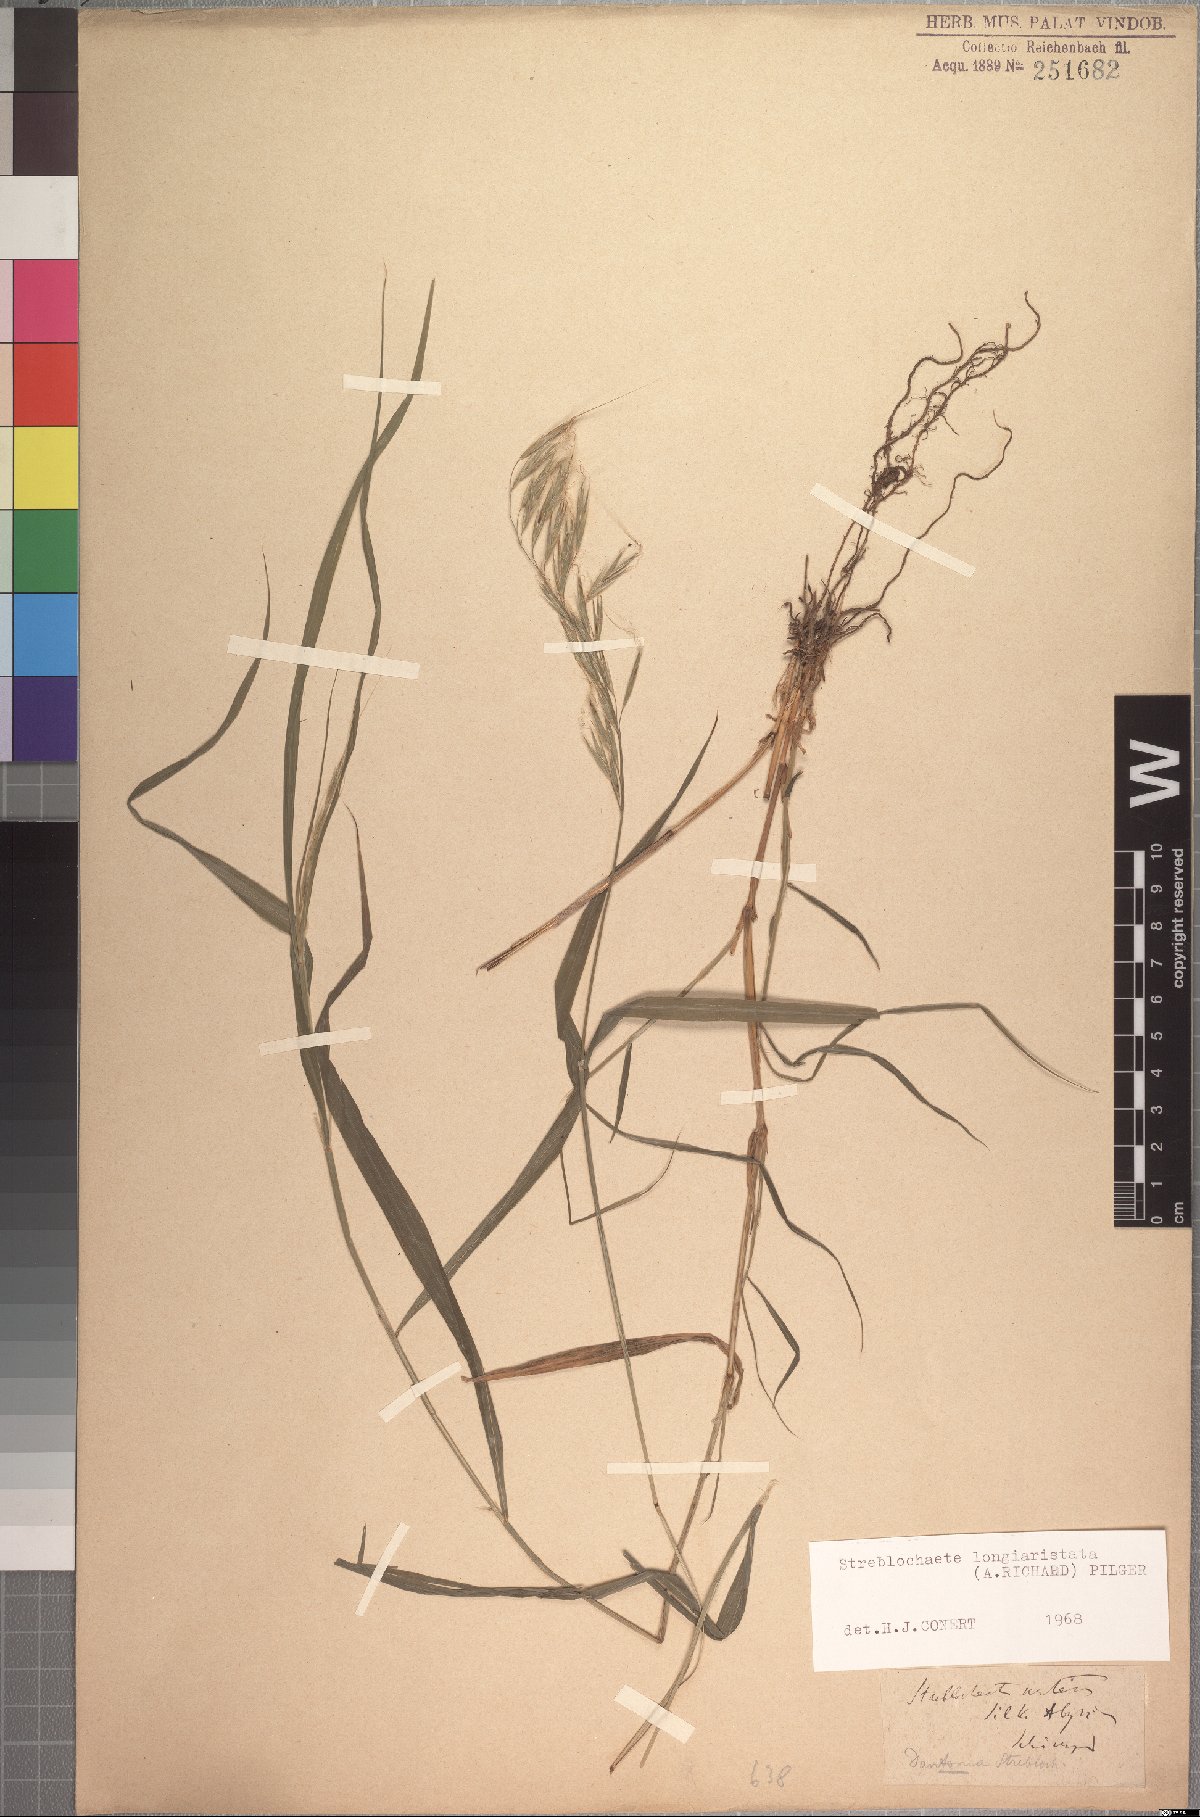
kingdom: Plantae
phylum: Tracheophyta
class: Liliopsida
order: Poales
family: Poaceae
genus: Koordersiochloa
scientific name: Koordersiochloa longiarista
